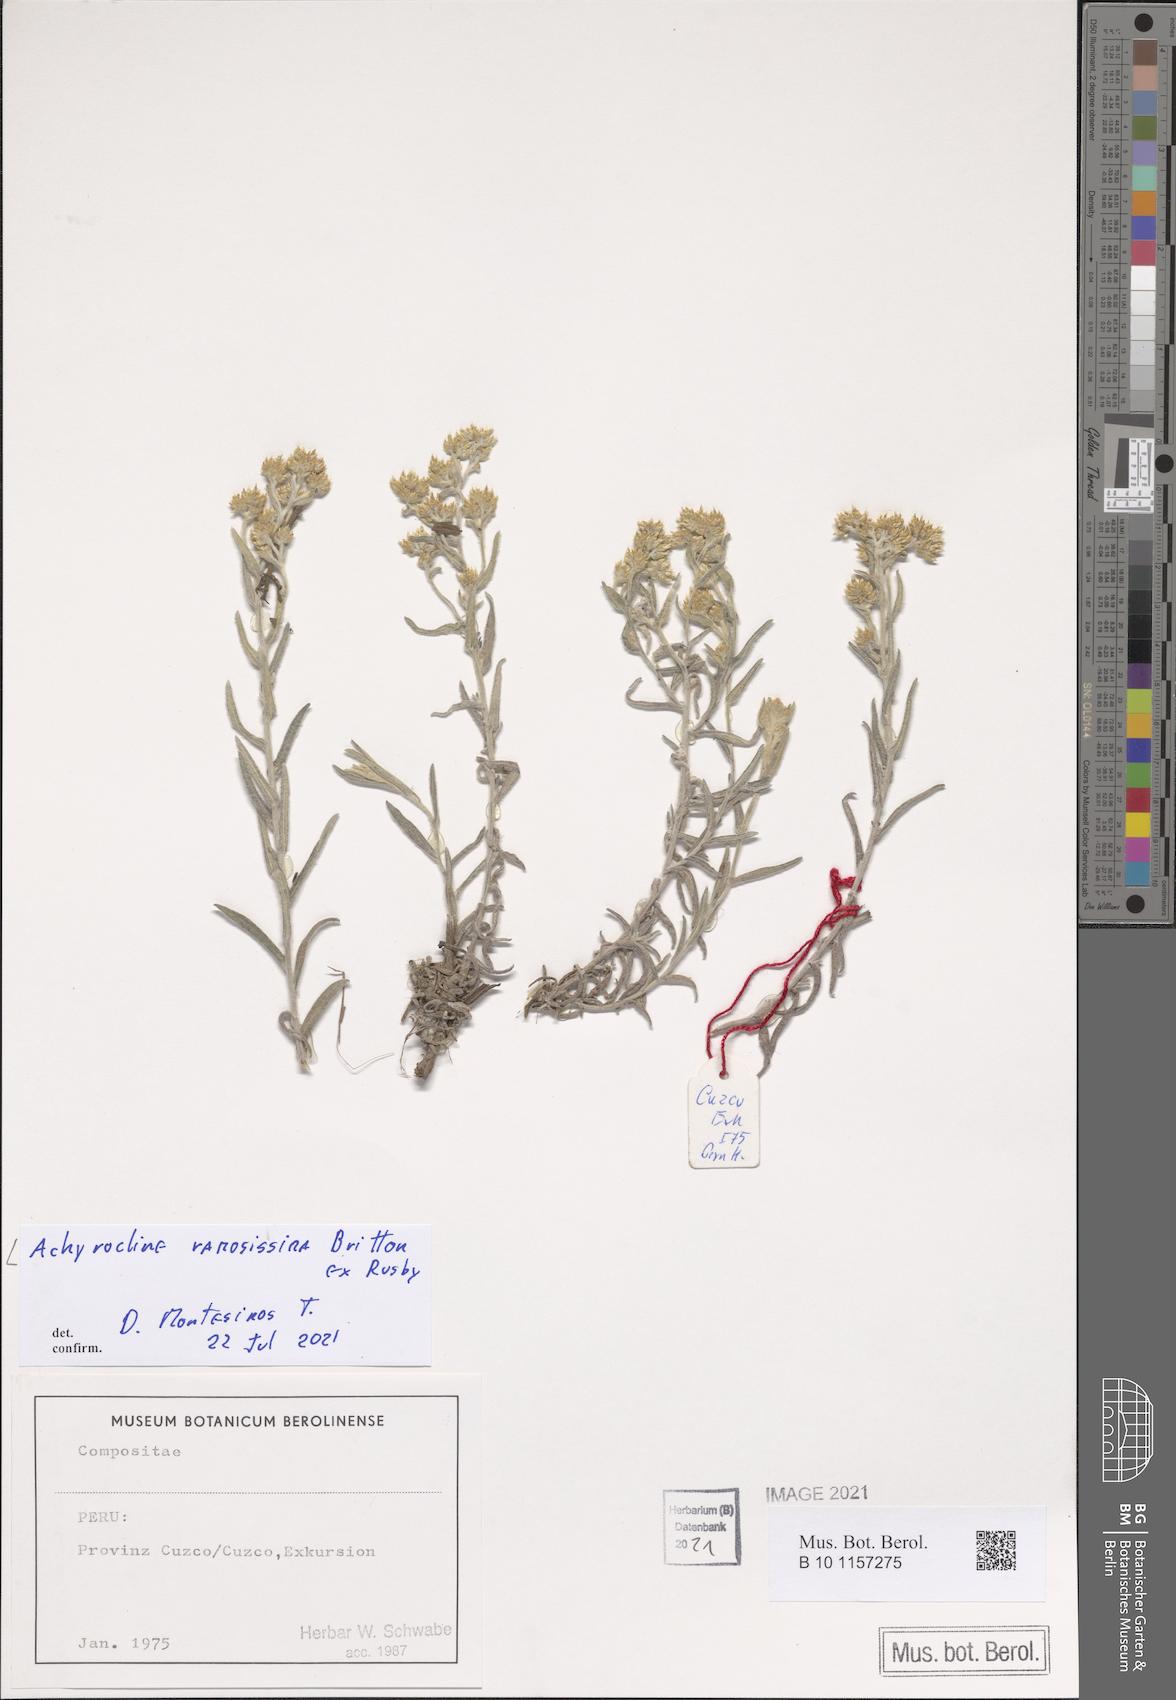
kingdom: Plantae
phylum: Tracheophyta
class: Magnoliopsida
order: Asterales
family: Asteraceae
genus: Achyrocline
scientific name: Achyrocline ramosissima
